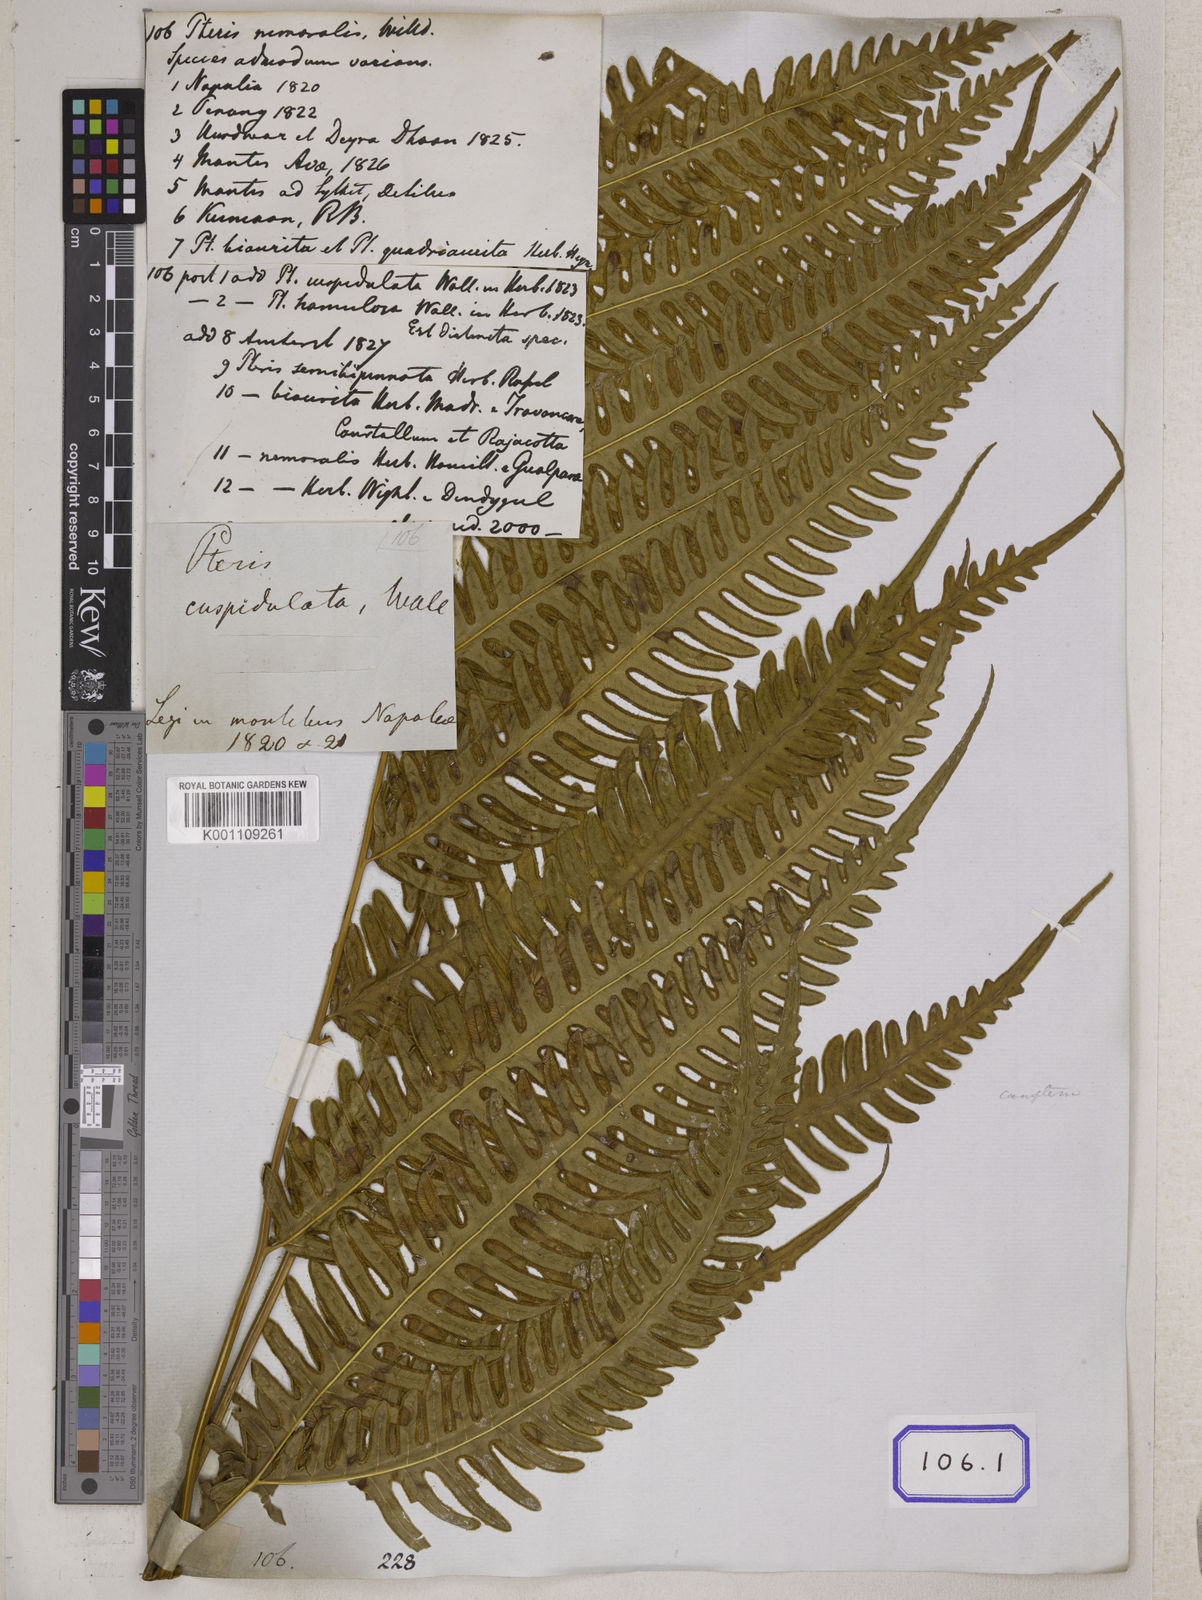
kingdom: Plantae
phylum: Tracheophyta
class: Polypodiopsida
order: Polypodiales
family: Pteridaceae
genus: Pteris
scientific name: Pteris linearis
